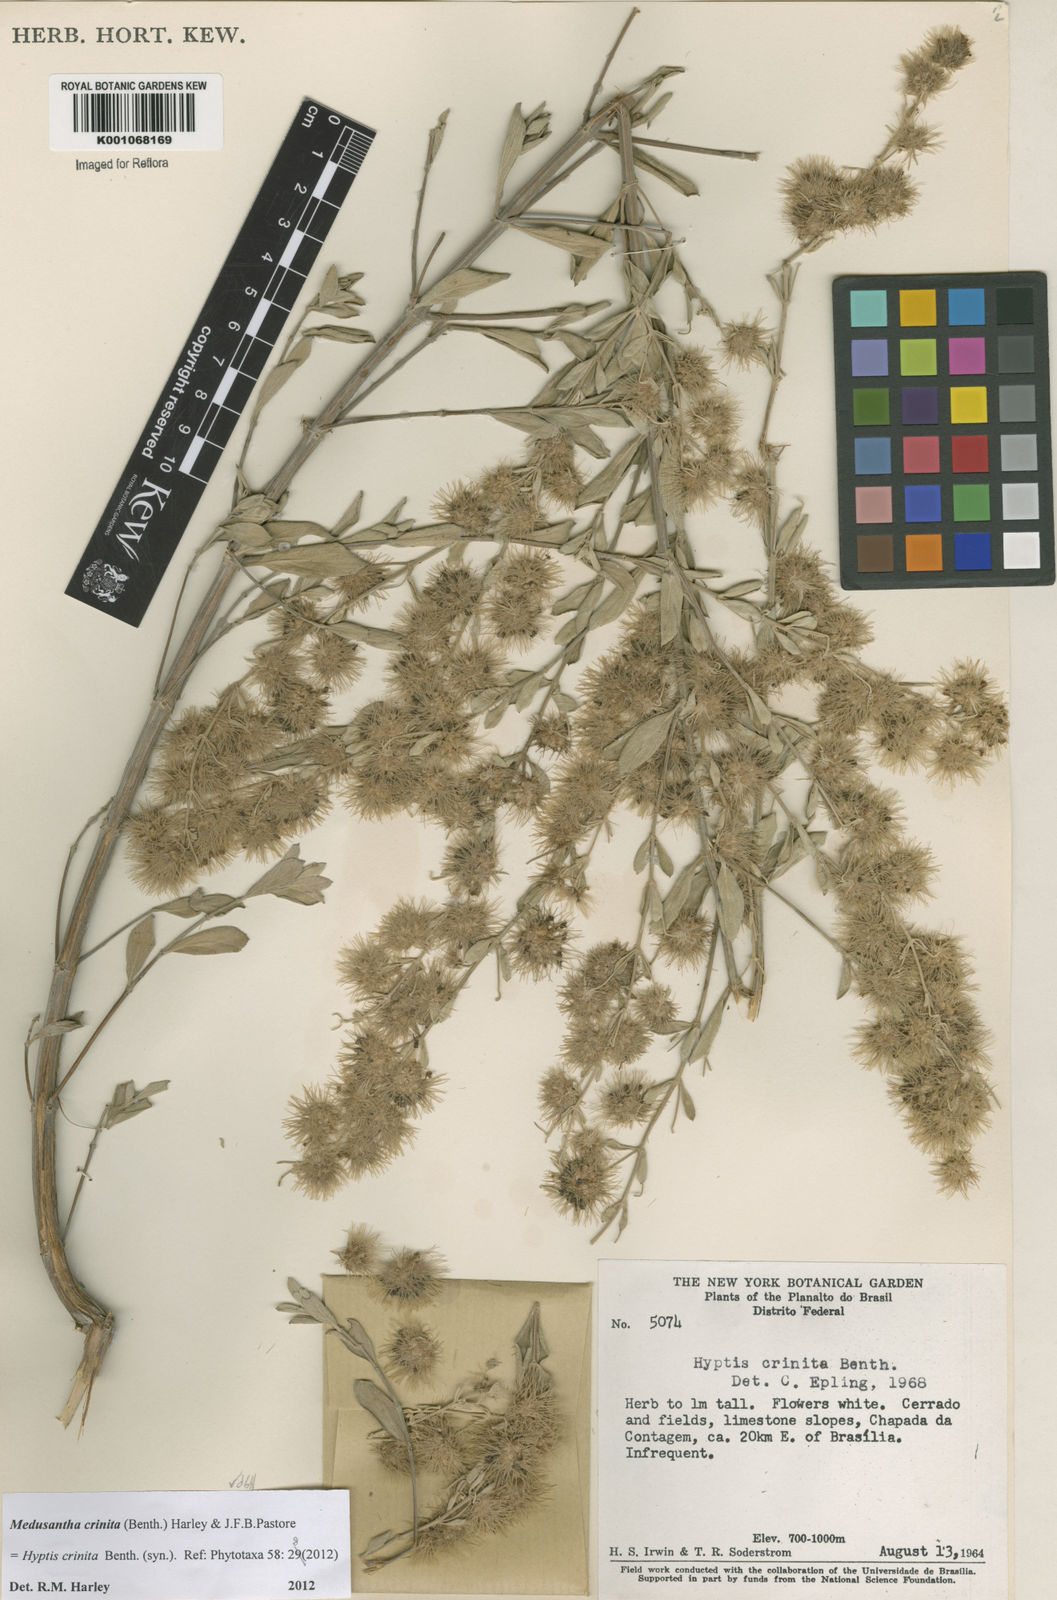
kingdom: Plantae
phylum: Tracheophyta
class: Magnoliopsida
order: Lamiales
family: Lamiaceae
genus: Medusantha
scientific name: Medusantha crinita
